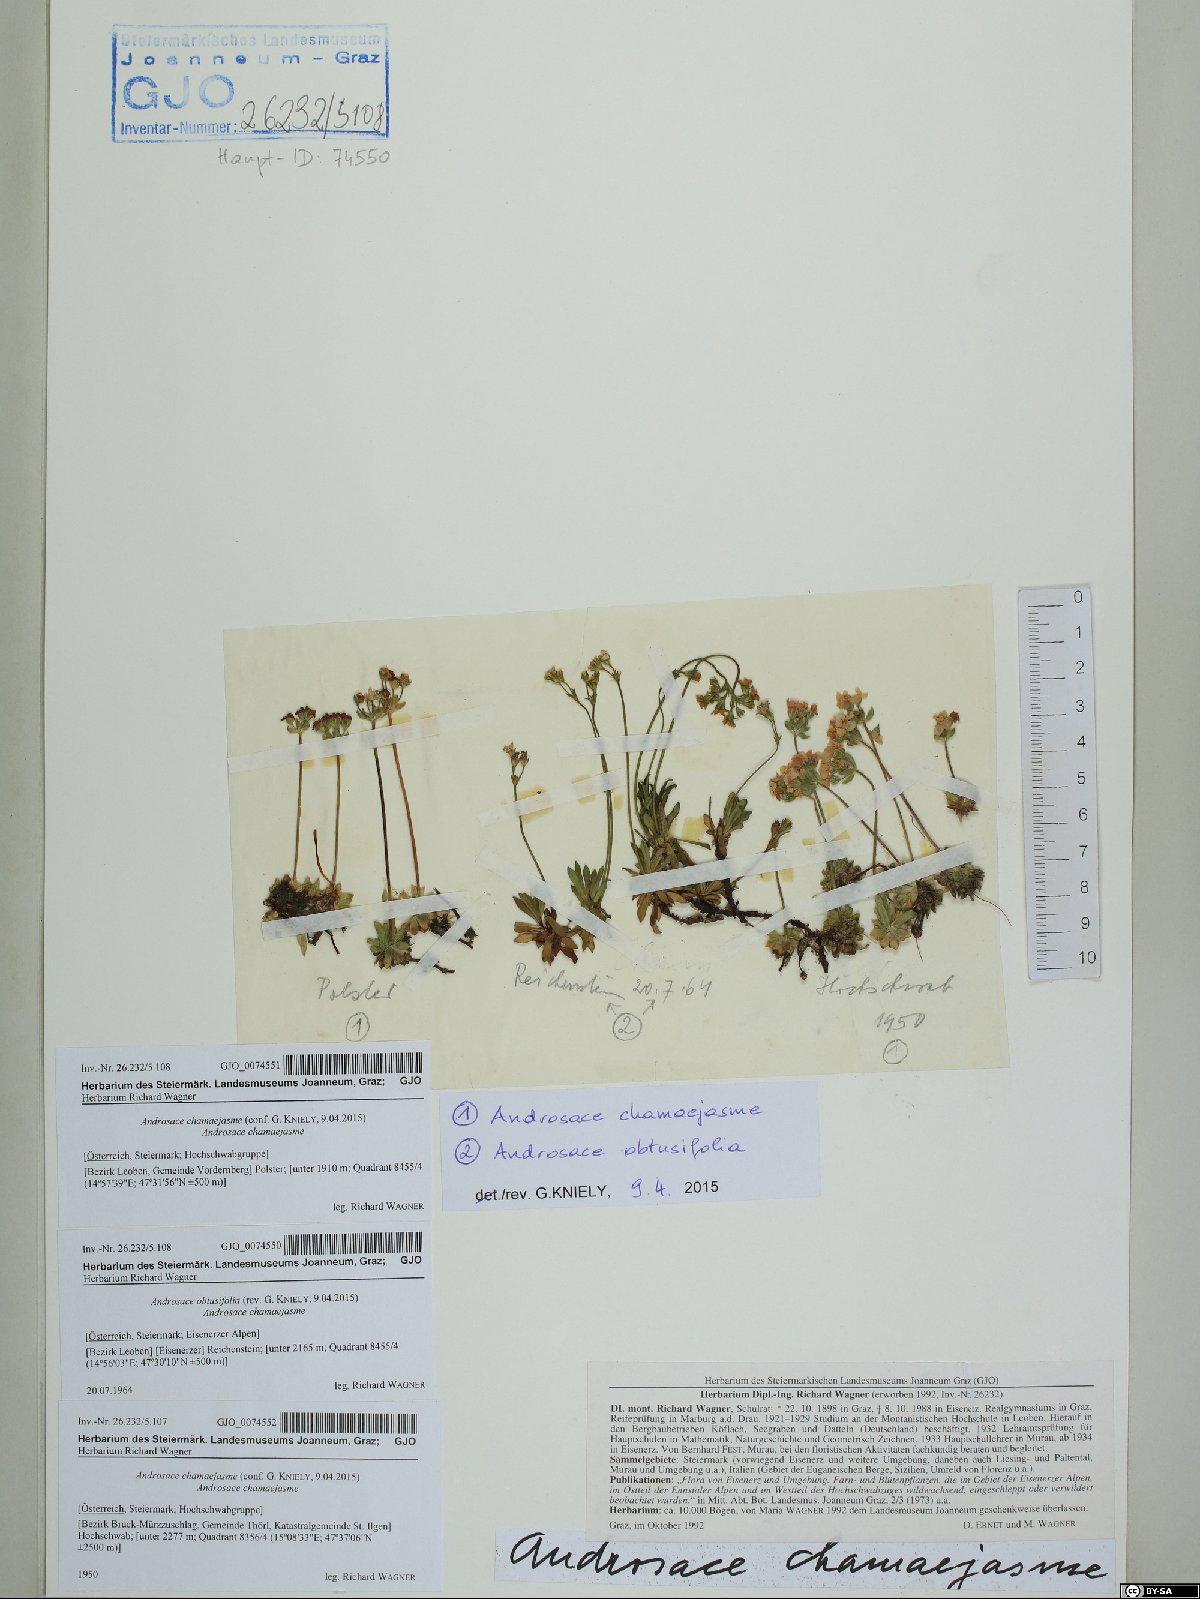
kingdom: Plantae
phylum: Tracheophyta
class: Magnoliopsida
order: Ericales
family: Primulaceae
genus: Androsace
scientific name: Androsace chamaejasme
